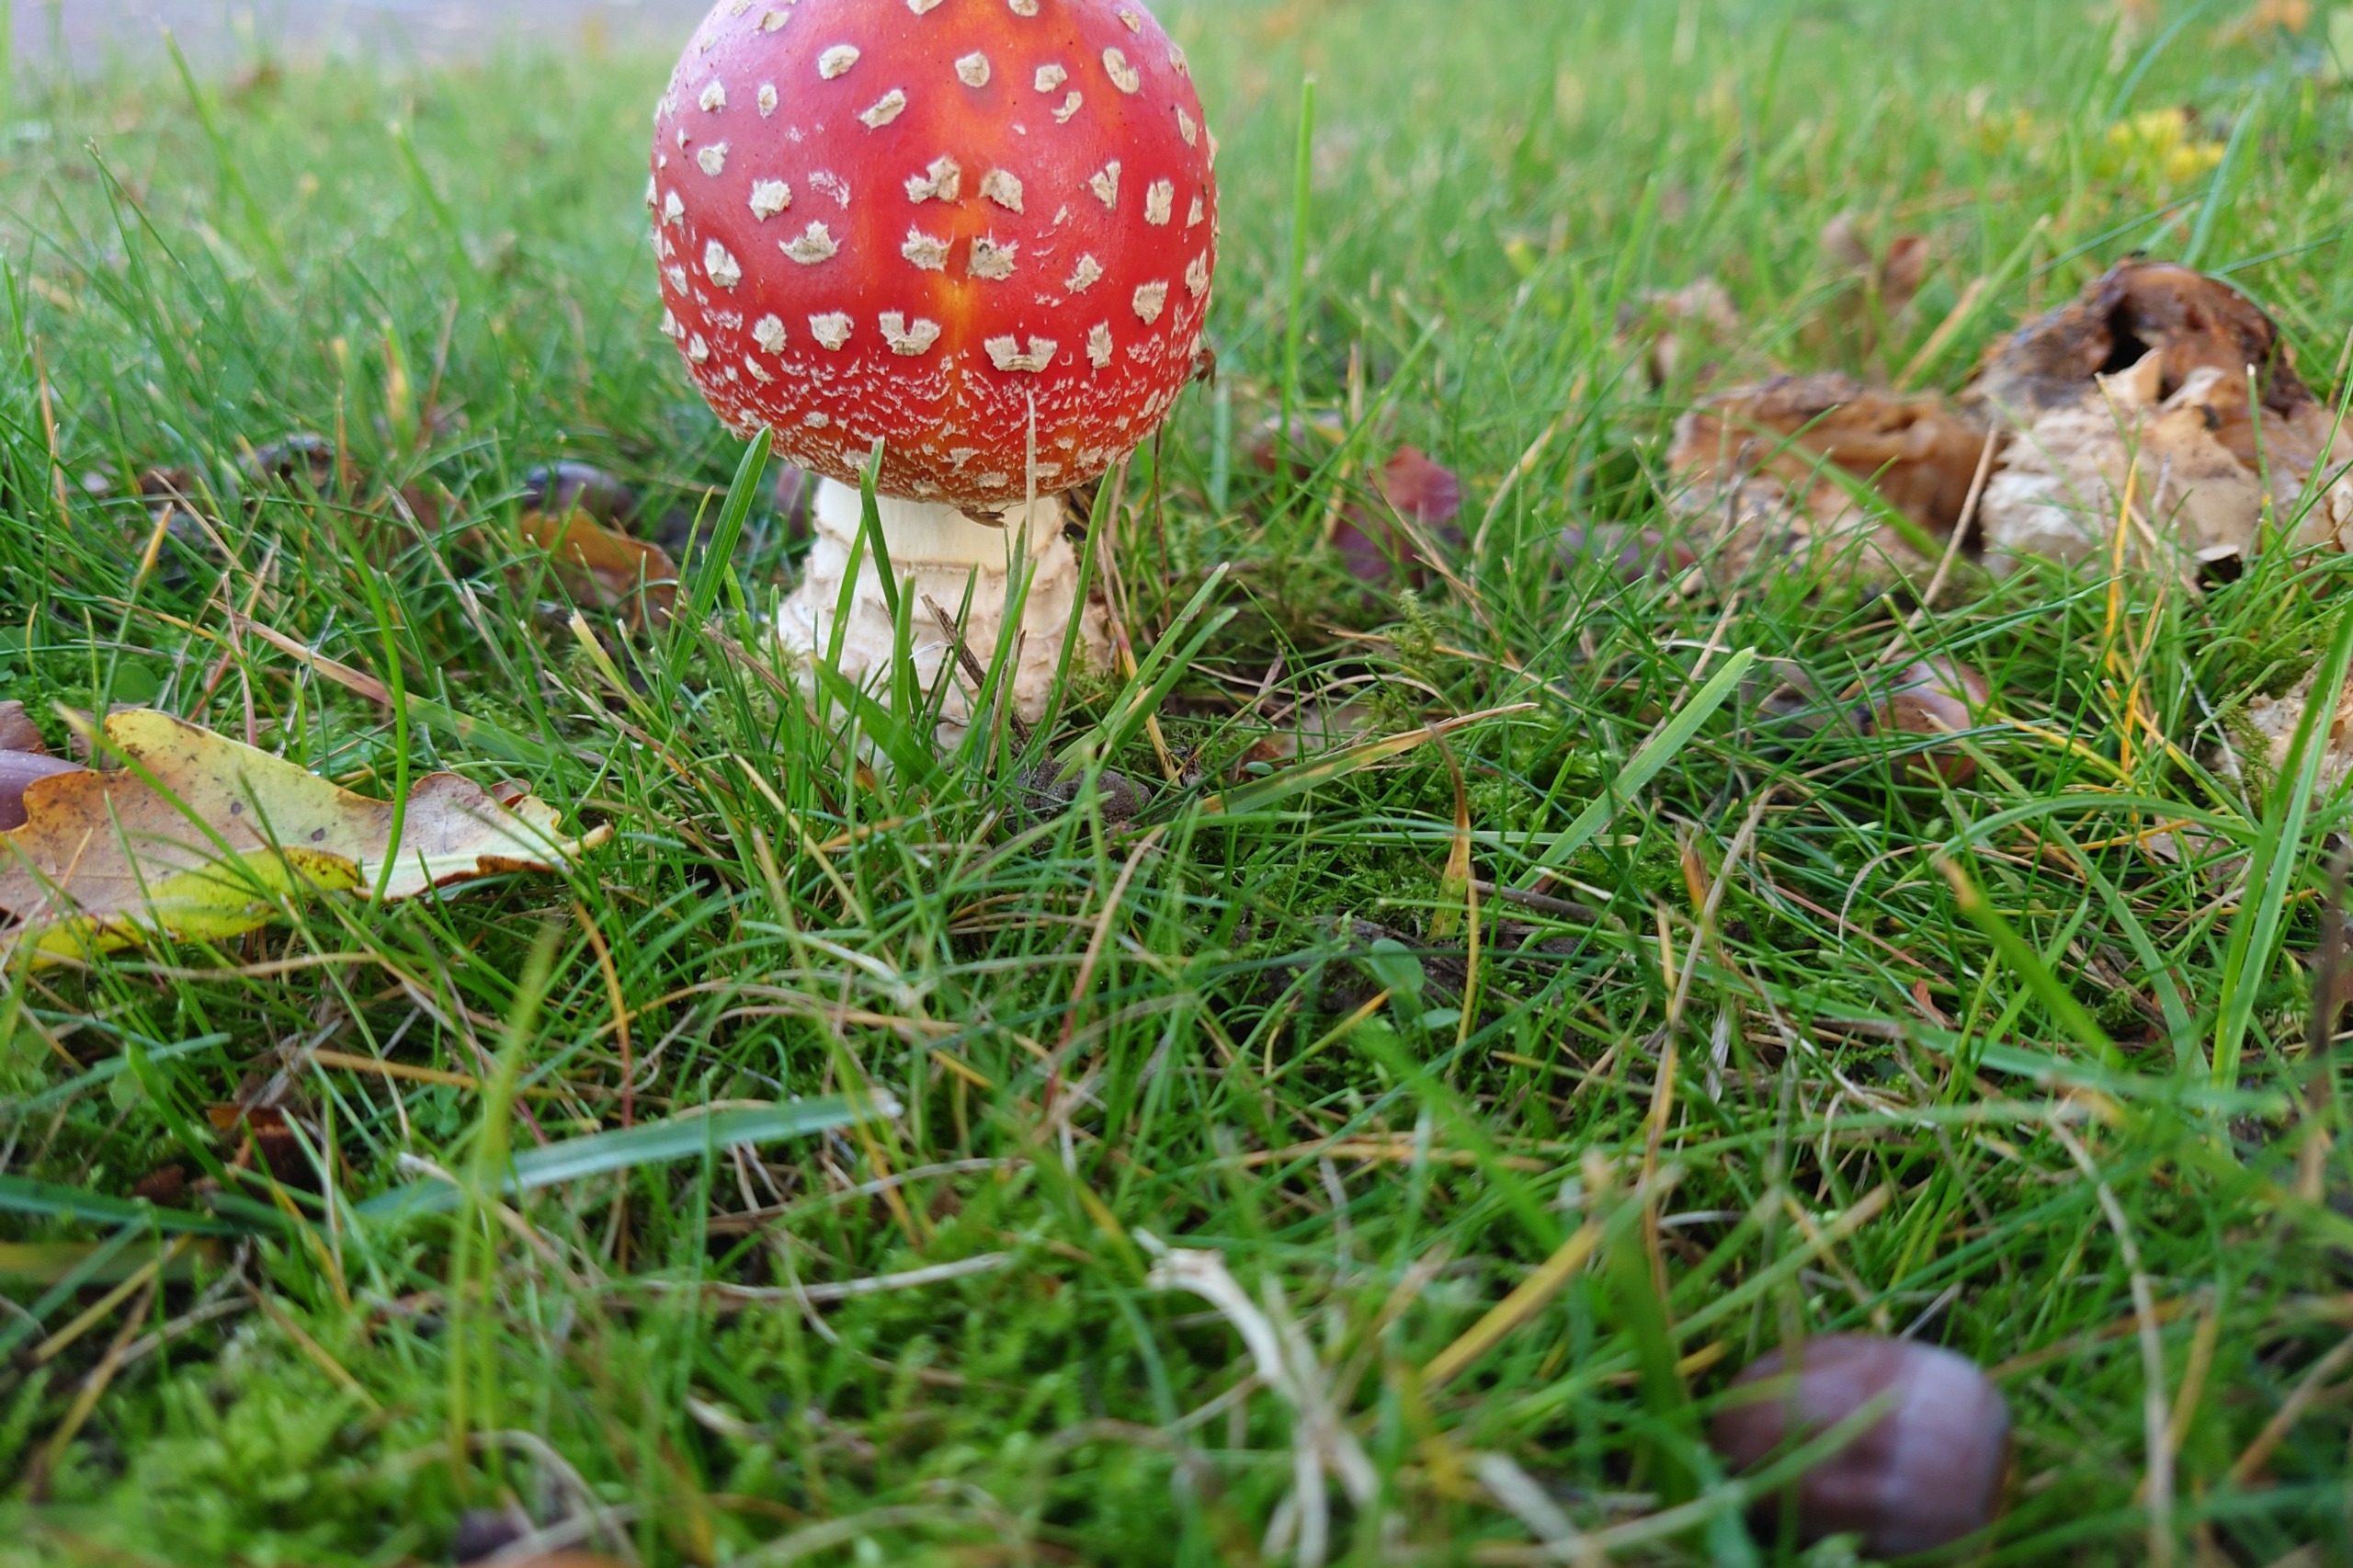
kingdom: Fungi
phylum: Basidiomycota
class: Agaricomycetes
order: Agaricales
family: Amanitaceae
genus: Amanita
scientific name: Amanita muscaria
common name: Rød fluesvamp
